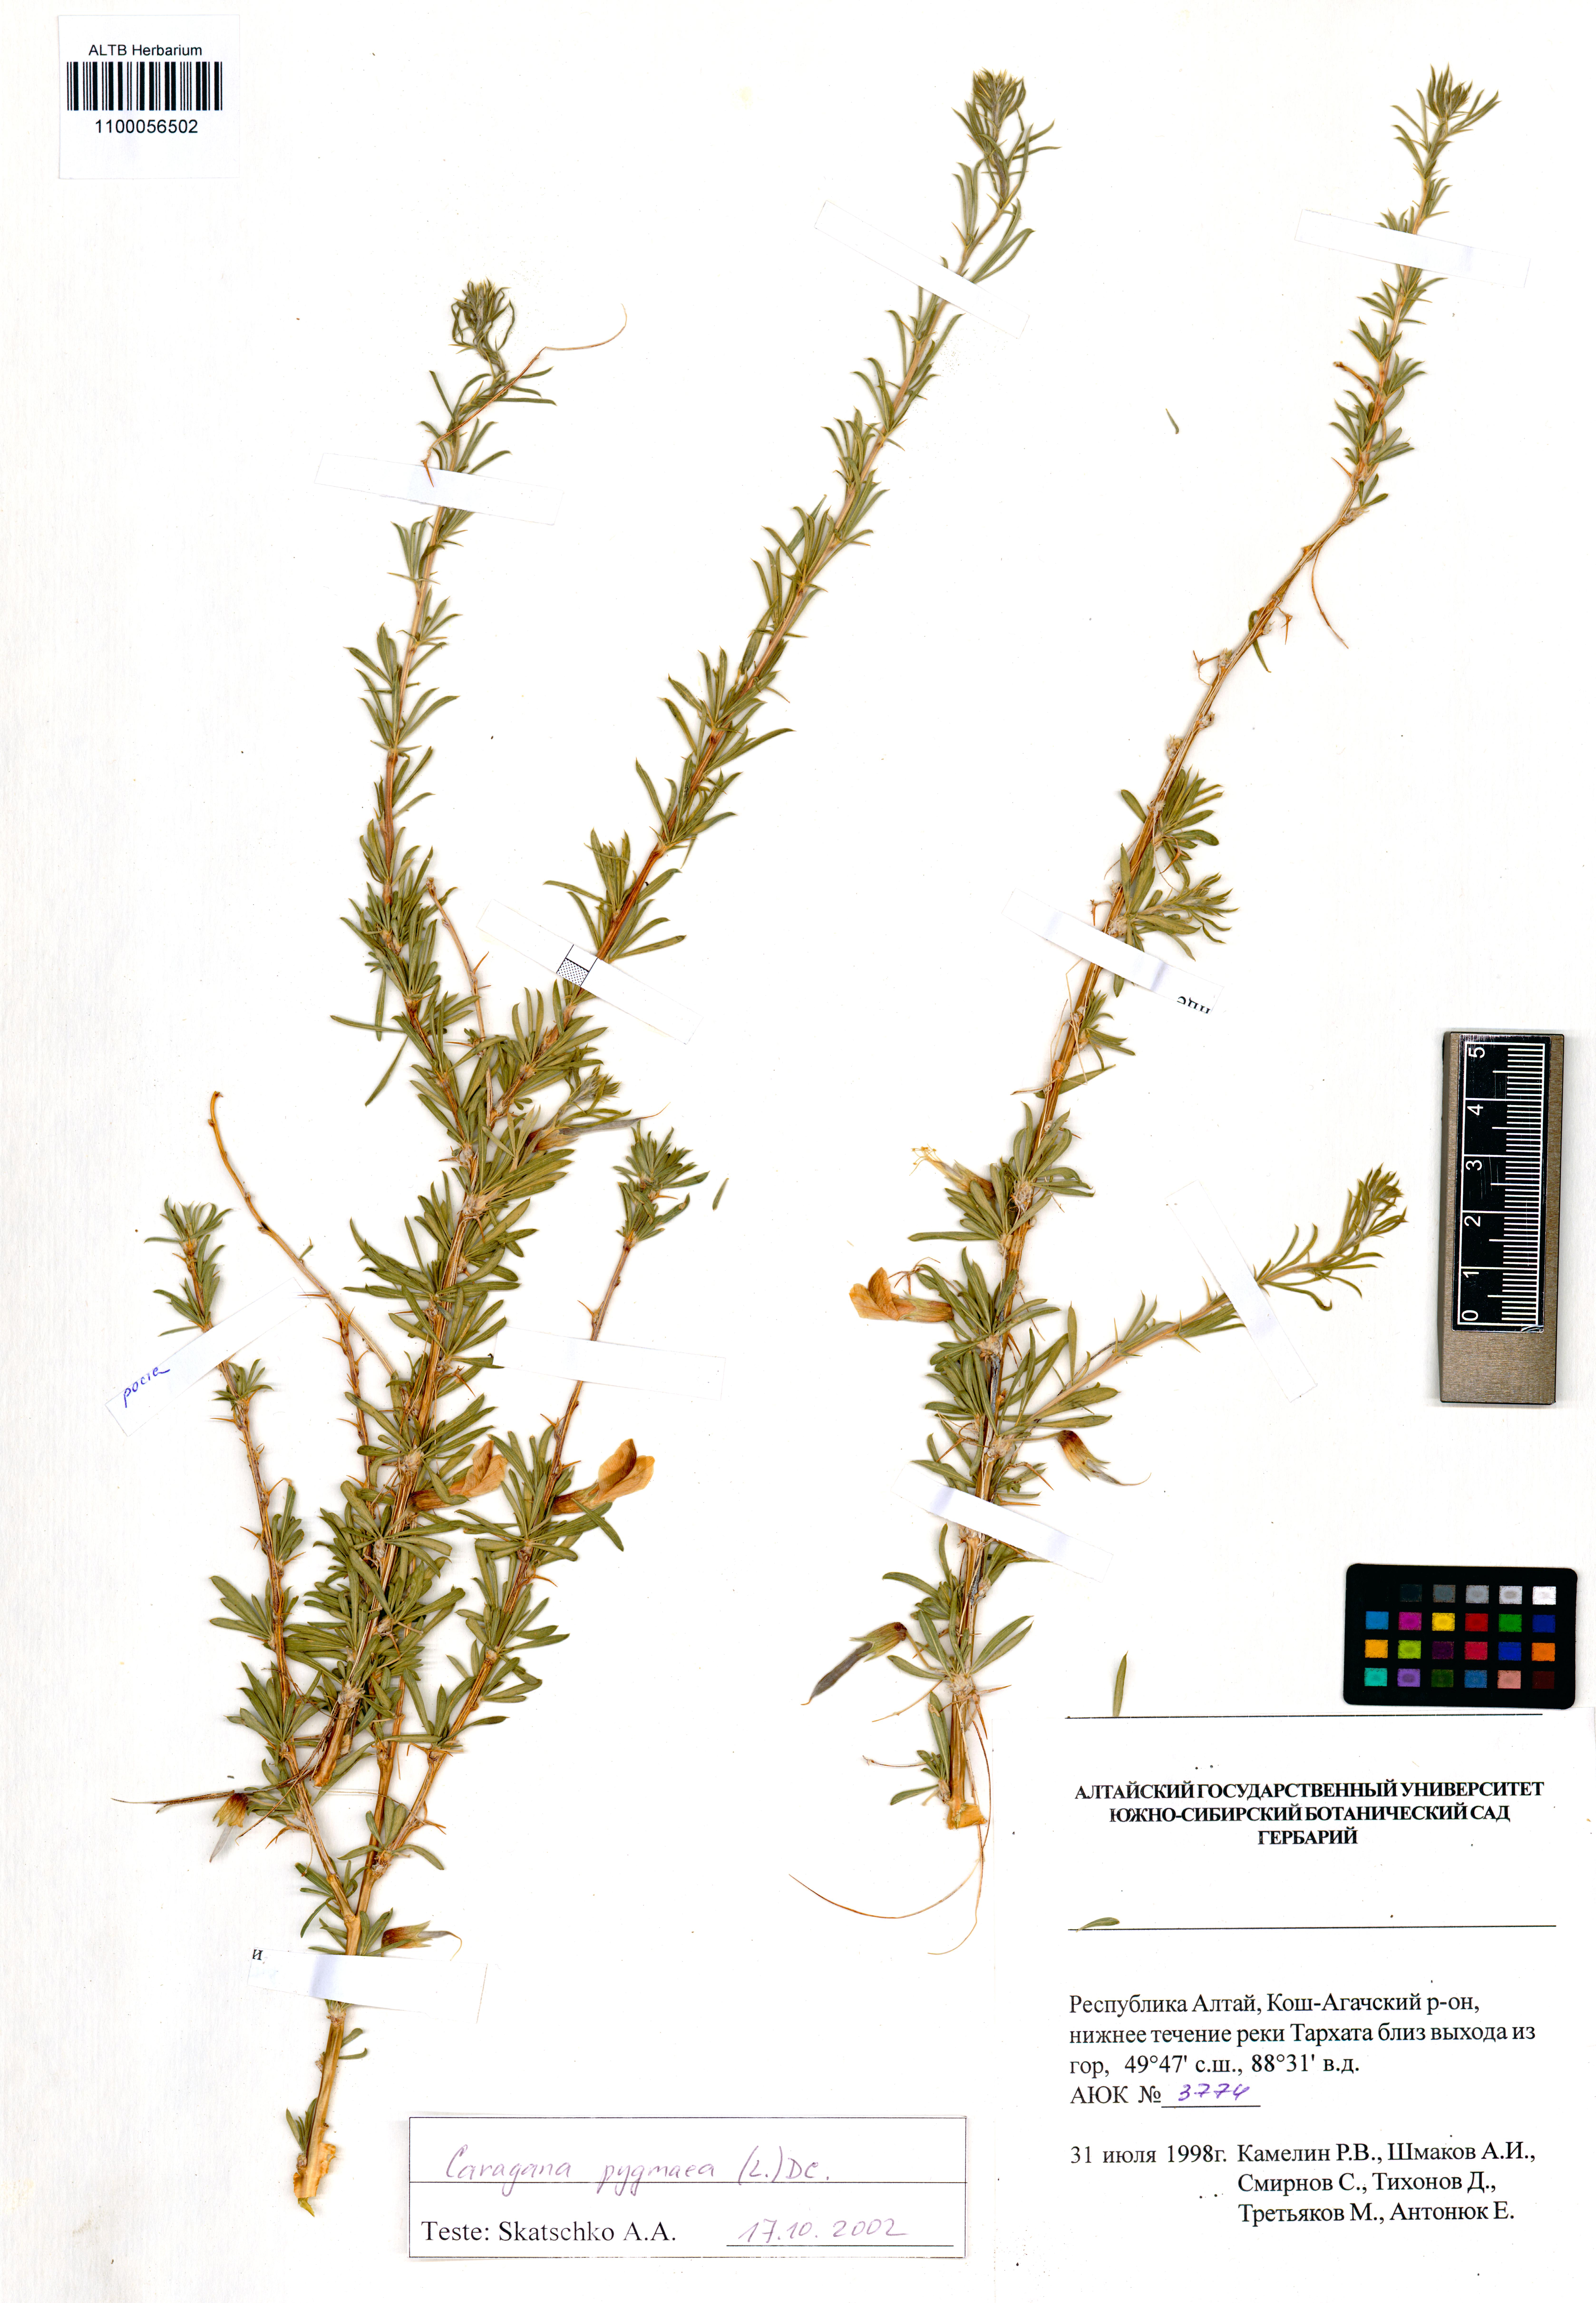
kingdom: Plantae
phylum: Tracheophyta
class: Magnoliopsida
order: Fabales
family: Fabaceae
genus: Caragana
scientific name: Caragana pygmaea
